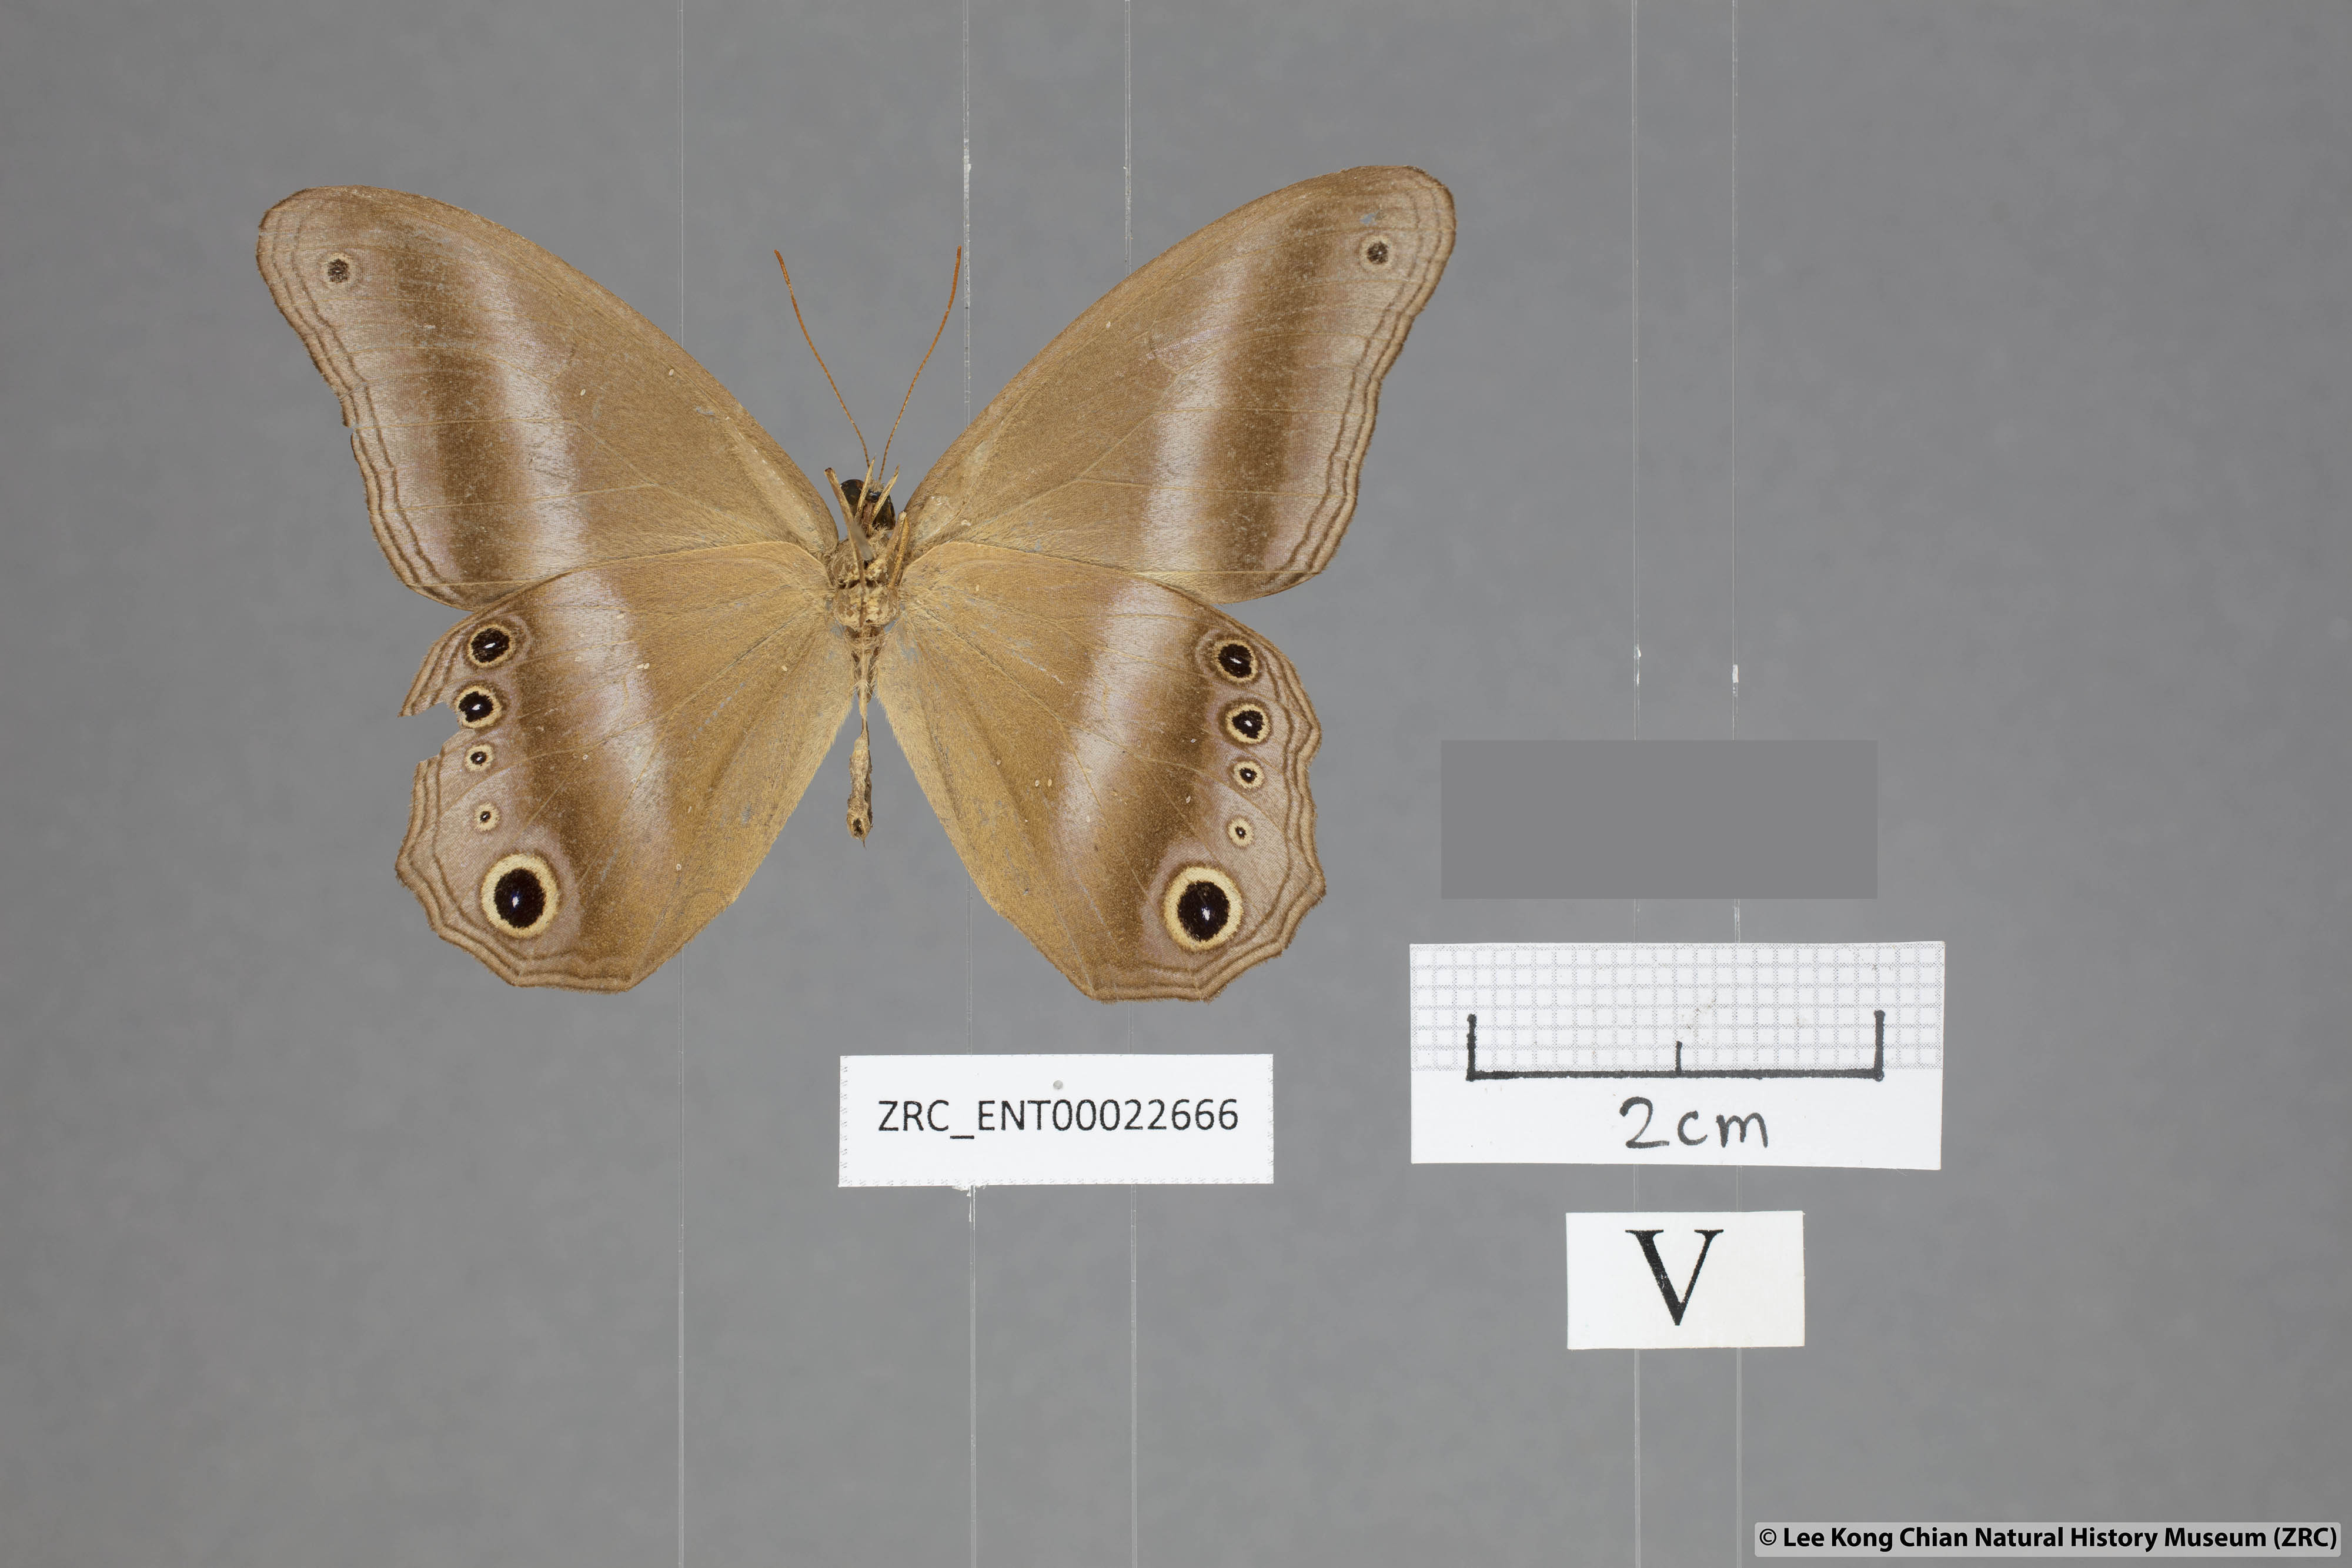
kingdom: Animalia
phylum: Arthropoda
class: Insecta
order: Lepidoptera
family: Nymphalidae
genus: Coelites
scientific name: Coelites euptychioides
